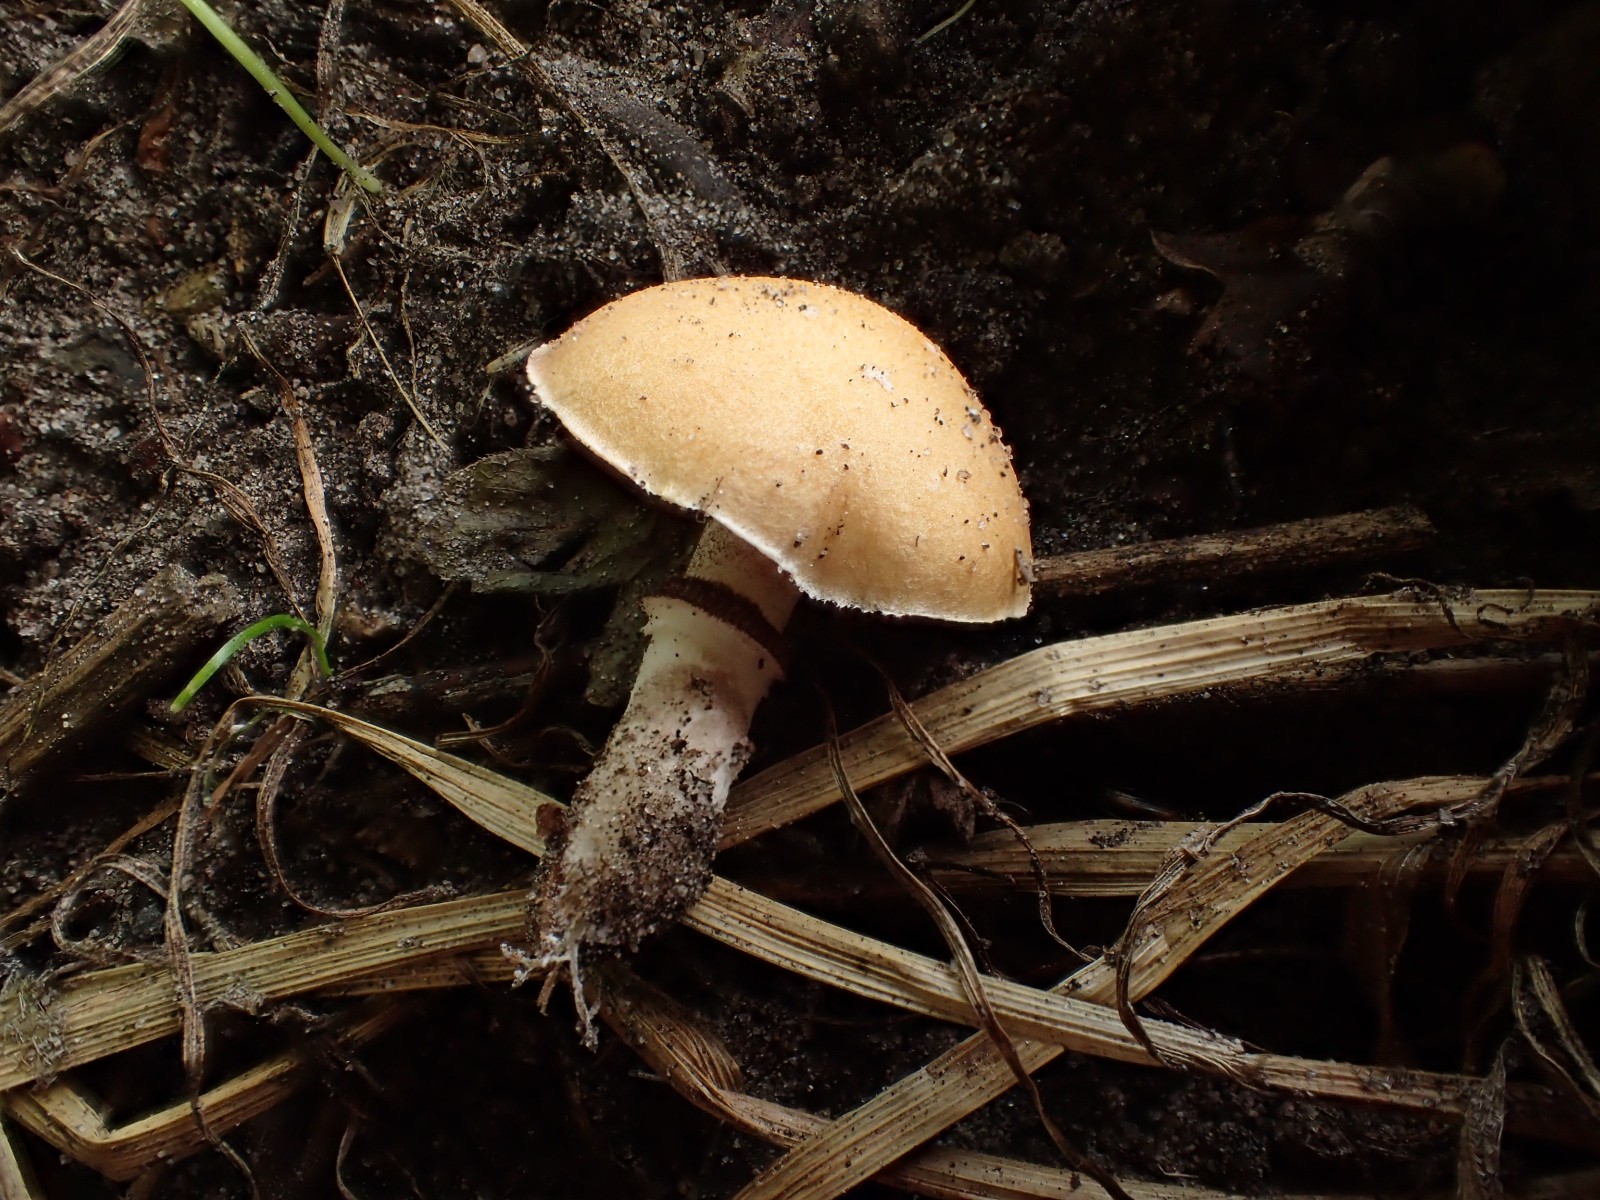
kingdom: Fungi
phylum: Basidiomycota
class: Agaricomycetes
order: Agaricales
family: Hymenogastraceae
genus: Psilocybe
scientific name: Psilocybe coronilla
